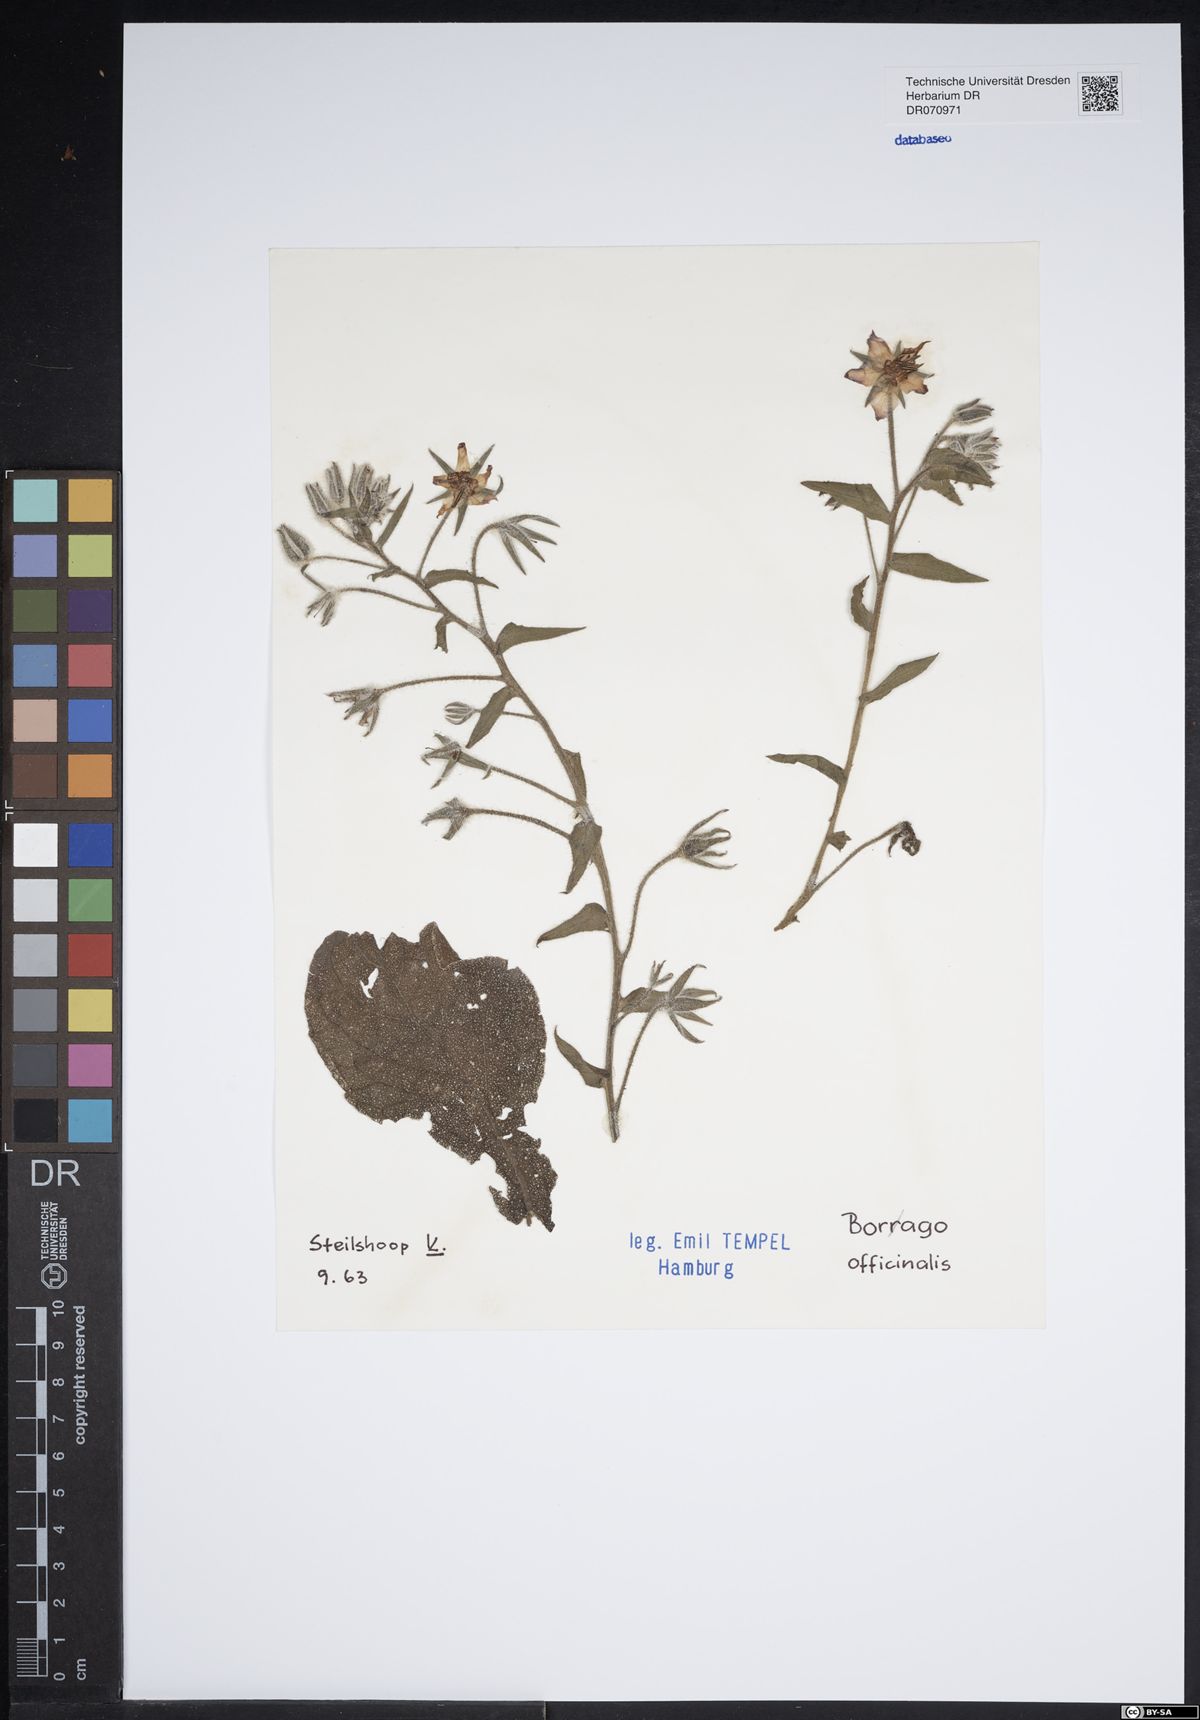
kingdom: Plantae
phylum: Tracheophyta
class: Magnoliopsida
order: Boraginales
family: Boraginaceae
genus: Borago
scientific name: Borago officinalis
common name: Borage
